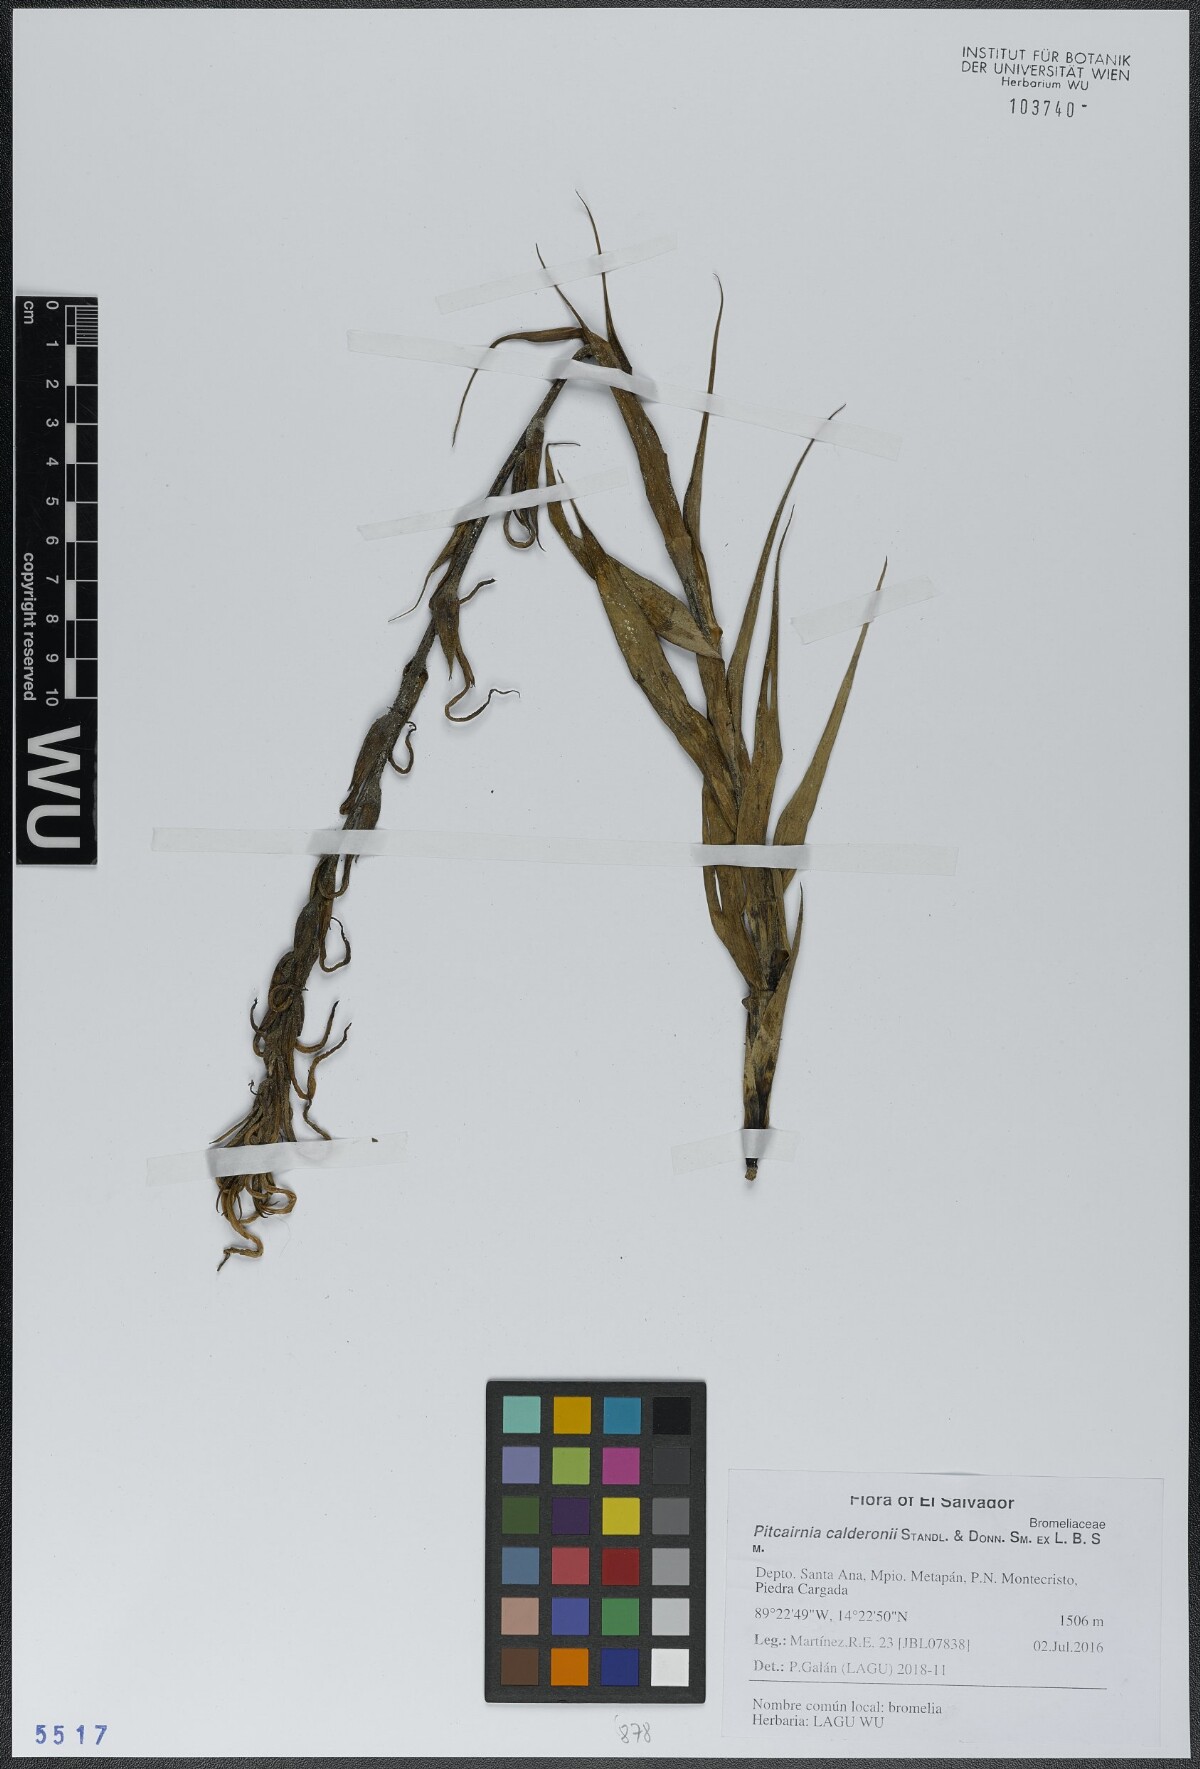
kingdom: Plantae
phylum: Tracheophyta
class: Liliopsida
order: Poales
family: Bromeliaceae
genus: Pitcairnia
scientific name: Pitcairnia calderonii
